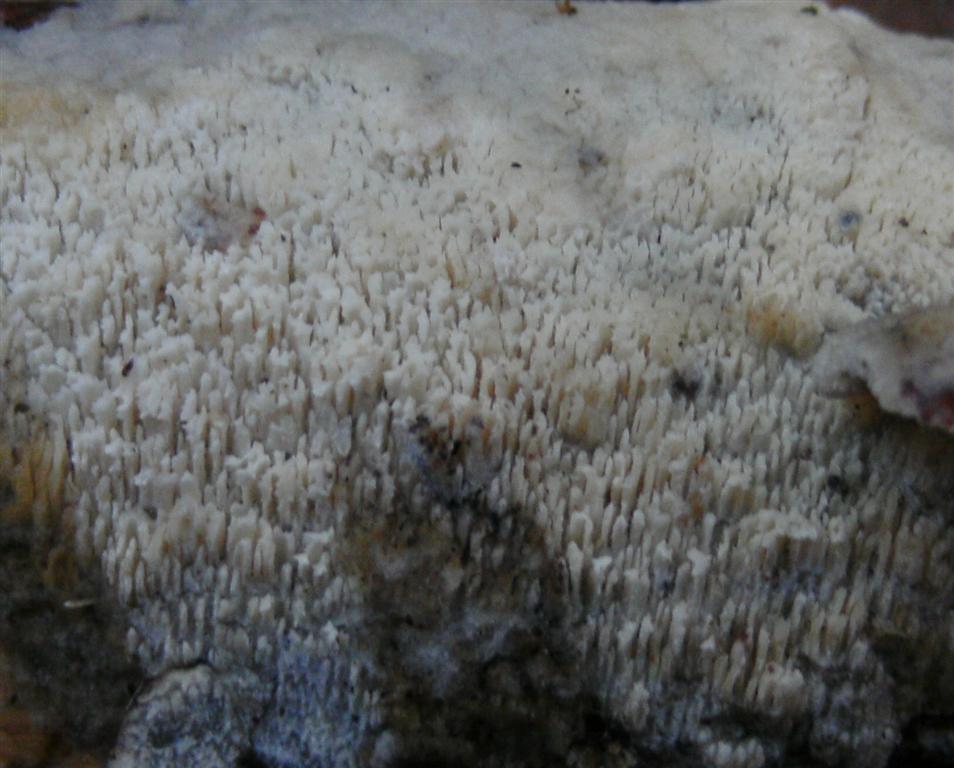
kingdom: Fungi
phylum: Basidiomycota
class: Agaricomycetes
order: Hymenochaetales
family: Schizoporaceae
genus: Schizopora
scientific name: Schizopora paradoxa
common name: hvid tandsvamp
